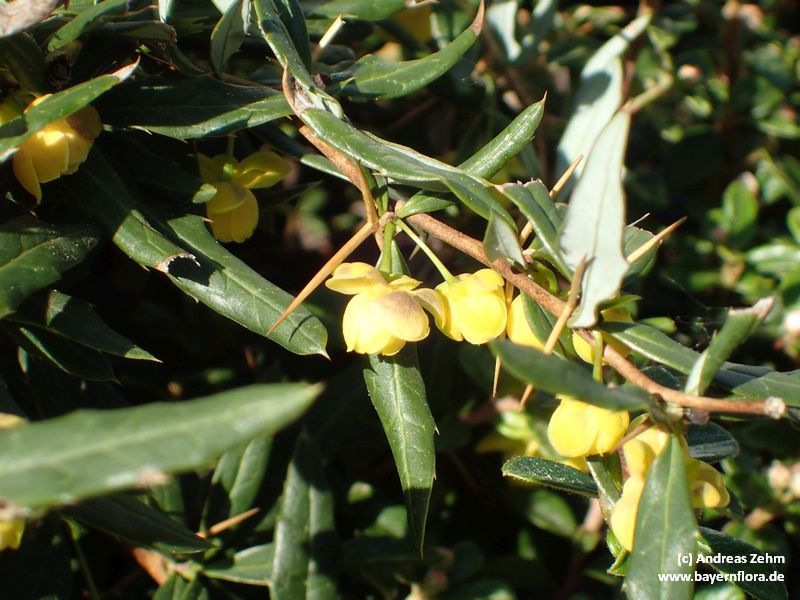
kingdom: Plantae
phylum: Tracheophyta
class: Magnoliopsida
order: Ranunculales
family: Berberidaceae
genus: Berberis
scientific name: Berberis candidula
